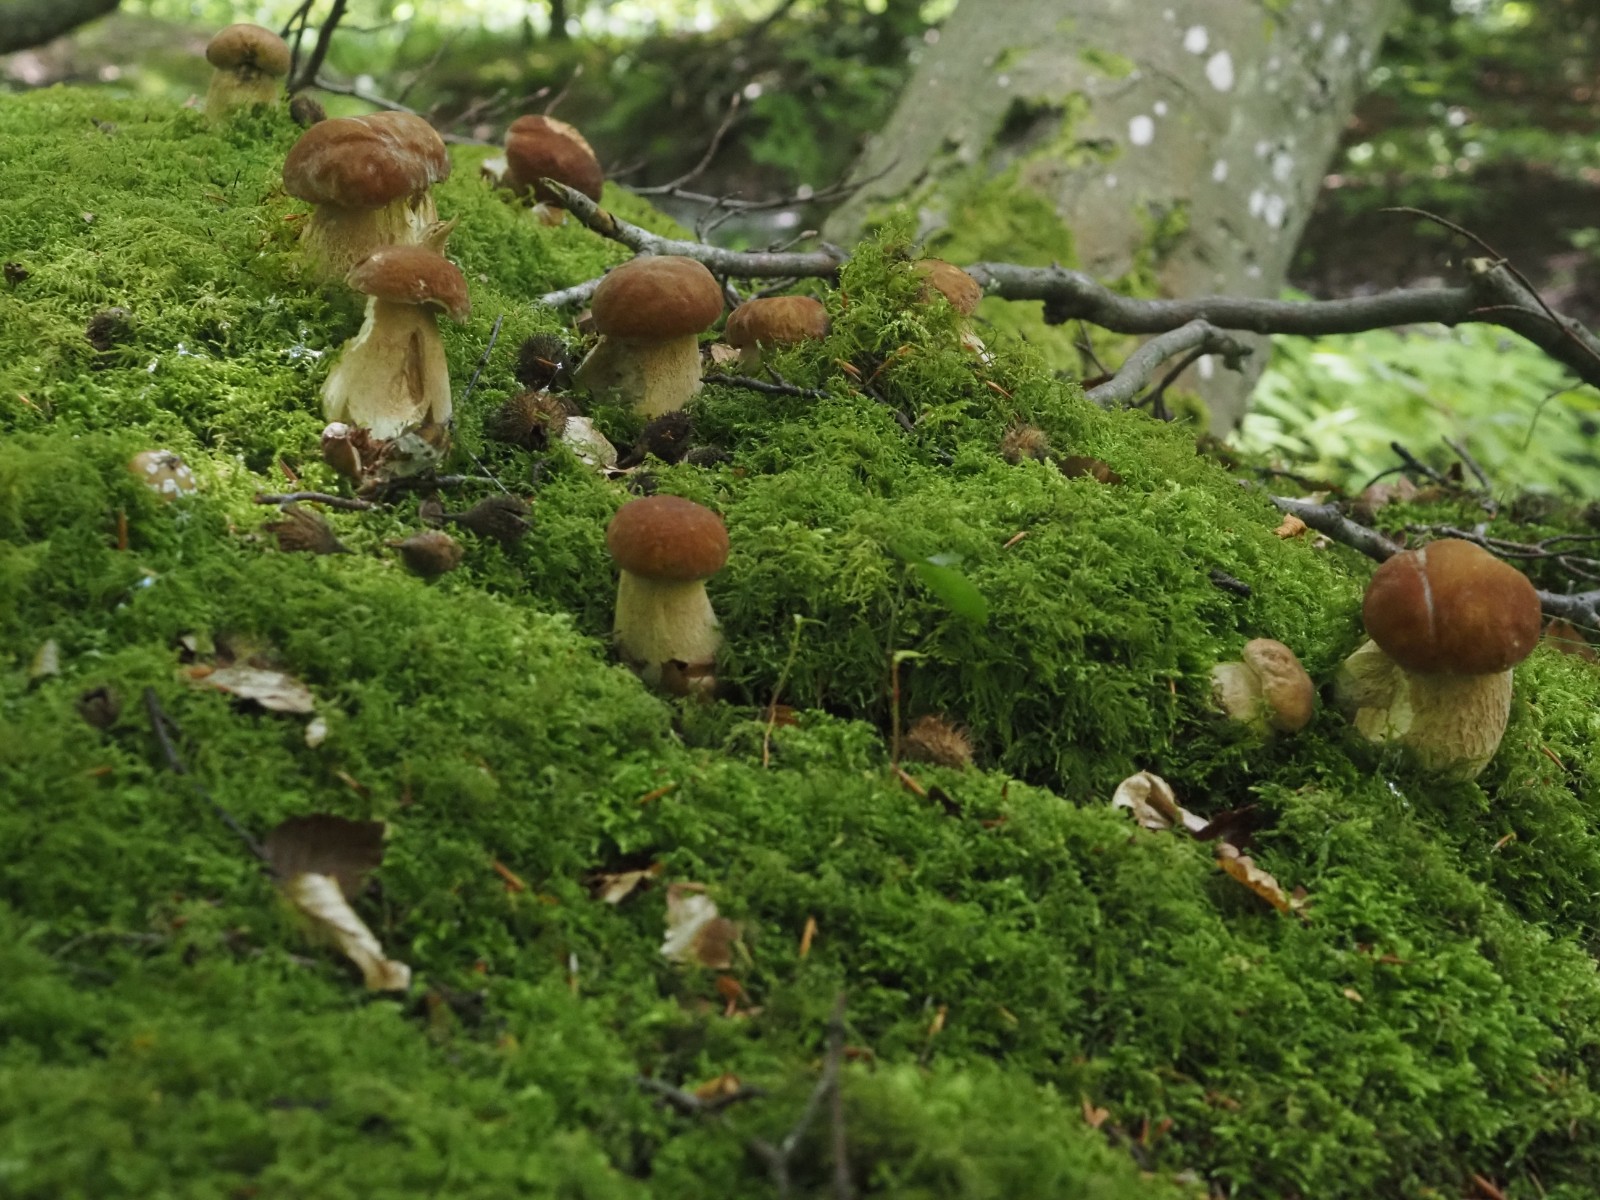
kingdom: Fungi
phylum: Basidiomycota
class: Agaricomycetes
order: Boletales
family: Boletaceae
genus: Boletus
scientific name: Boletus reticulatus
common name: sommer-rørhat
